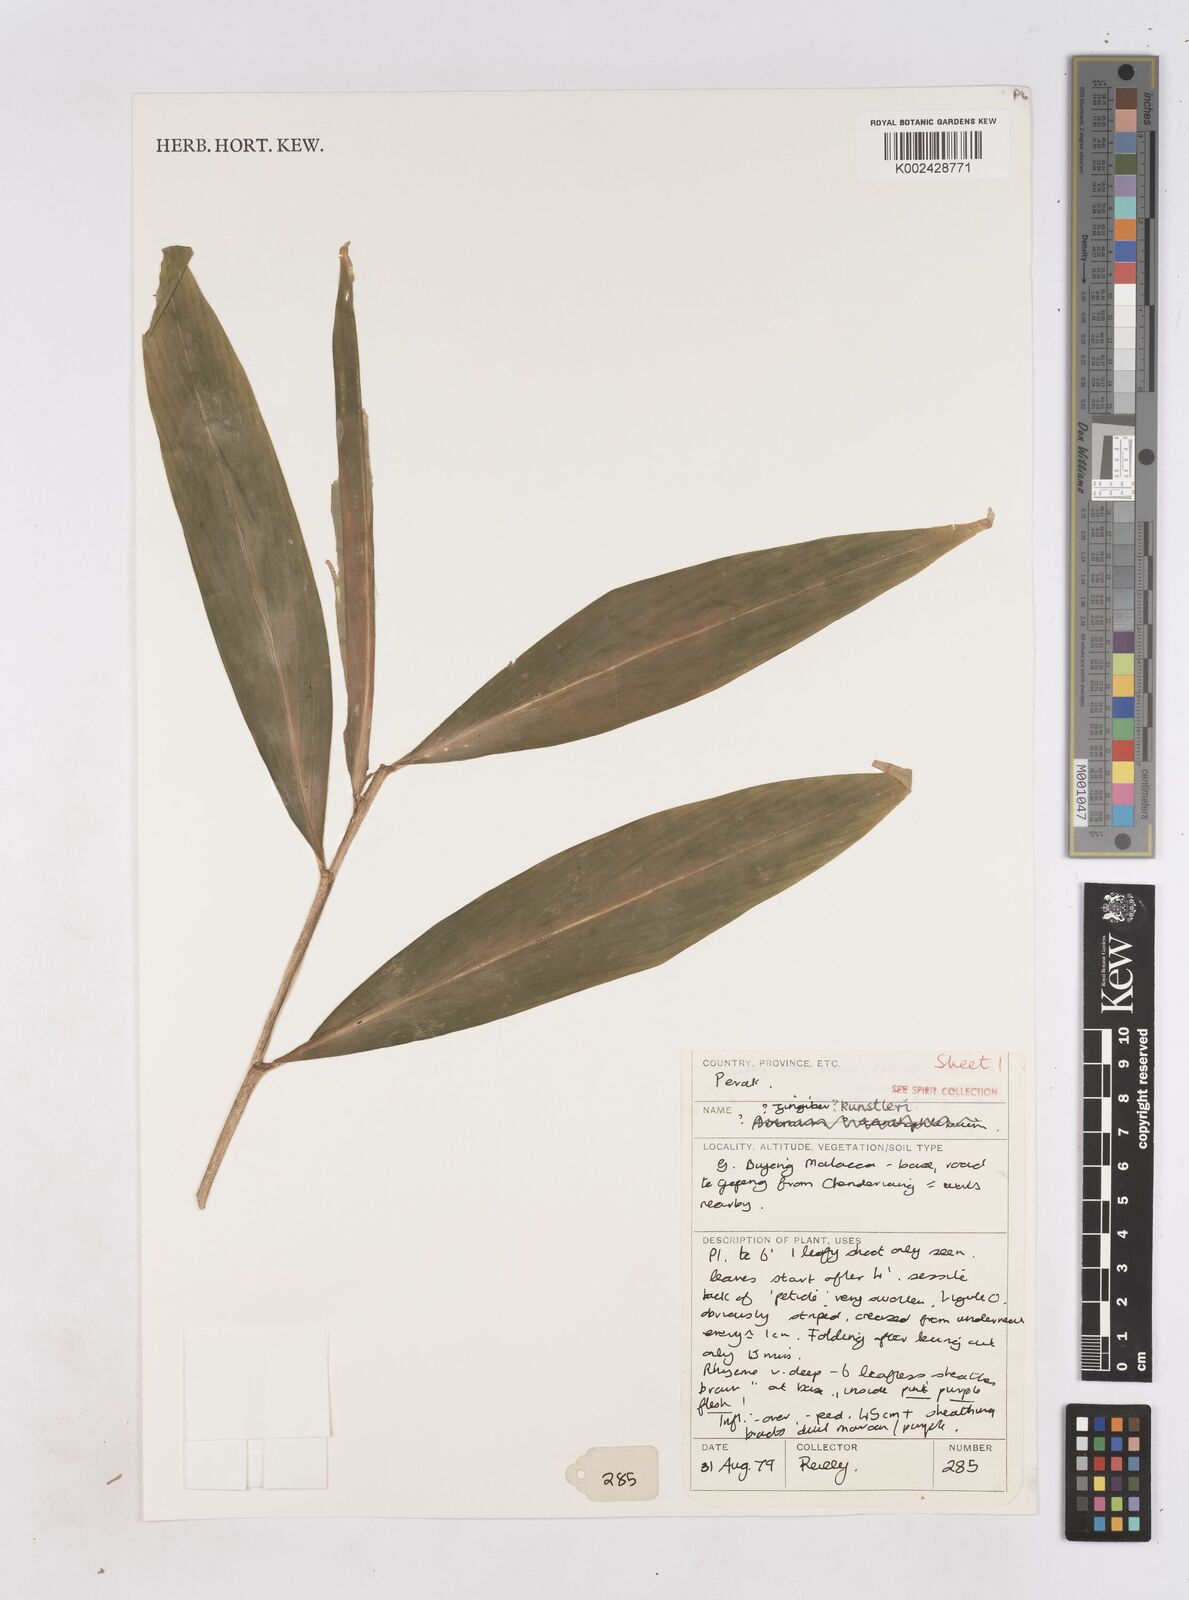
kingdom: Plantae
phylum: Tracheophyta
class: Liliopsida
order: Zingiberales
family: Zingiberaceae
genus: Zingiber
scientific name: Zingiber kunstleri
